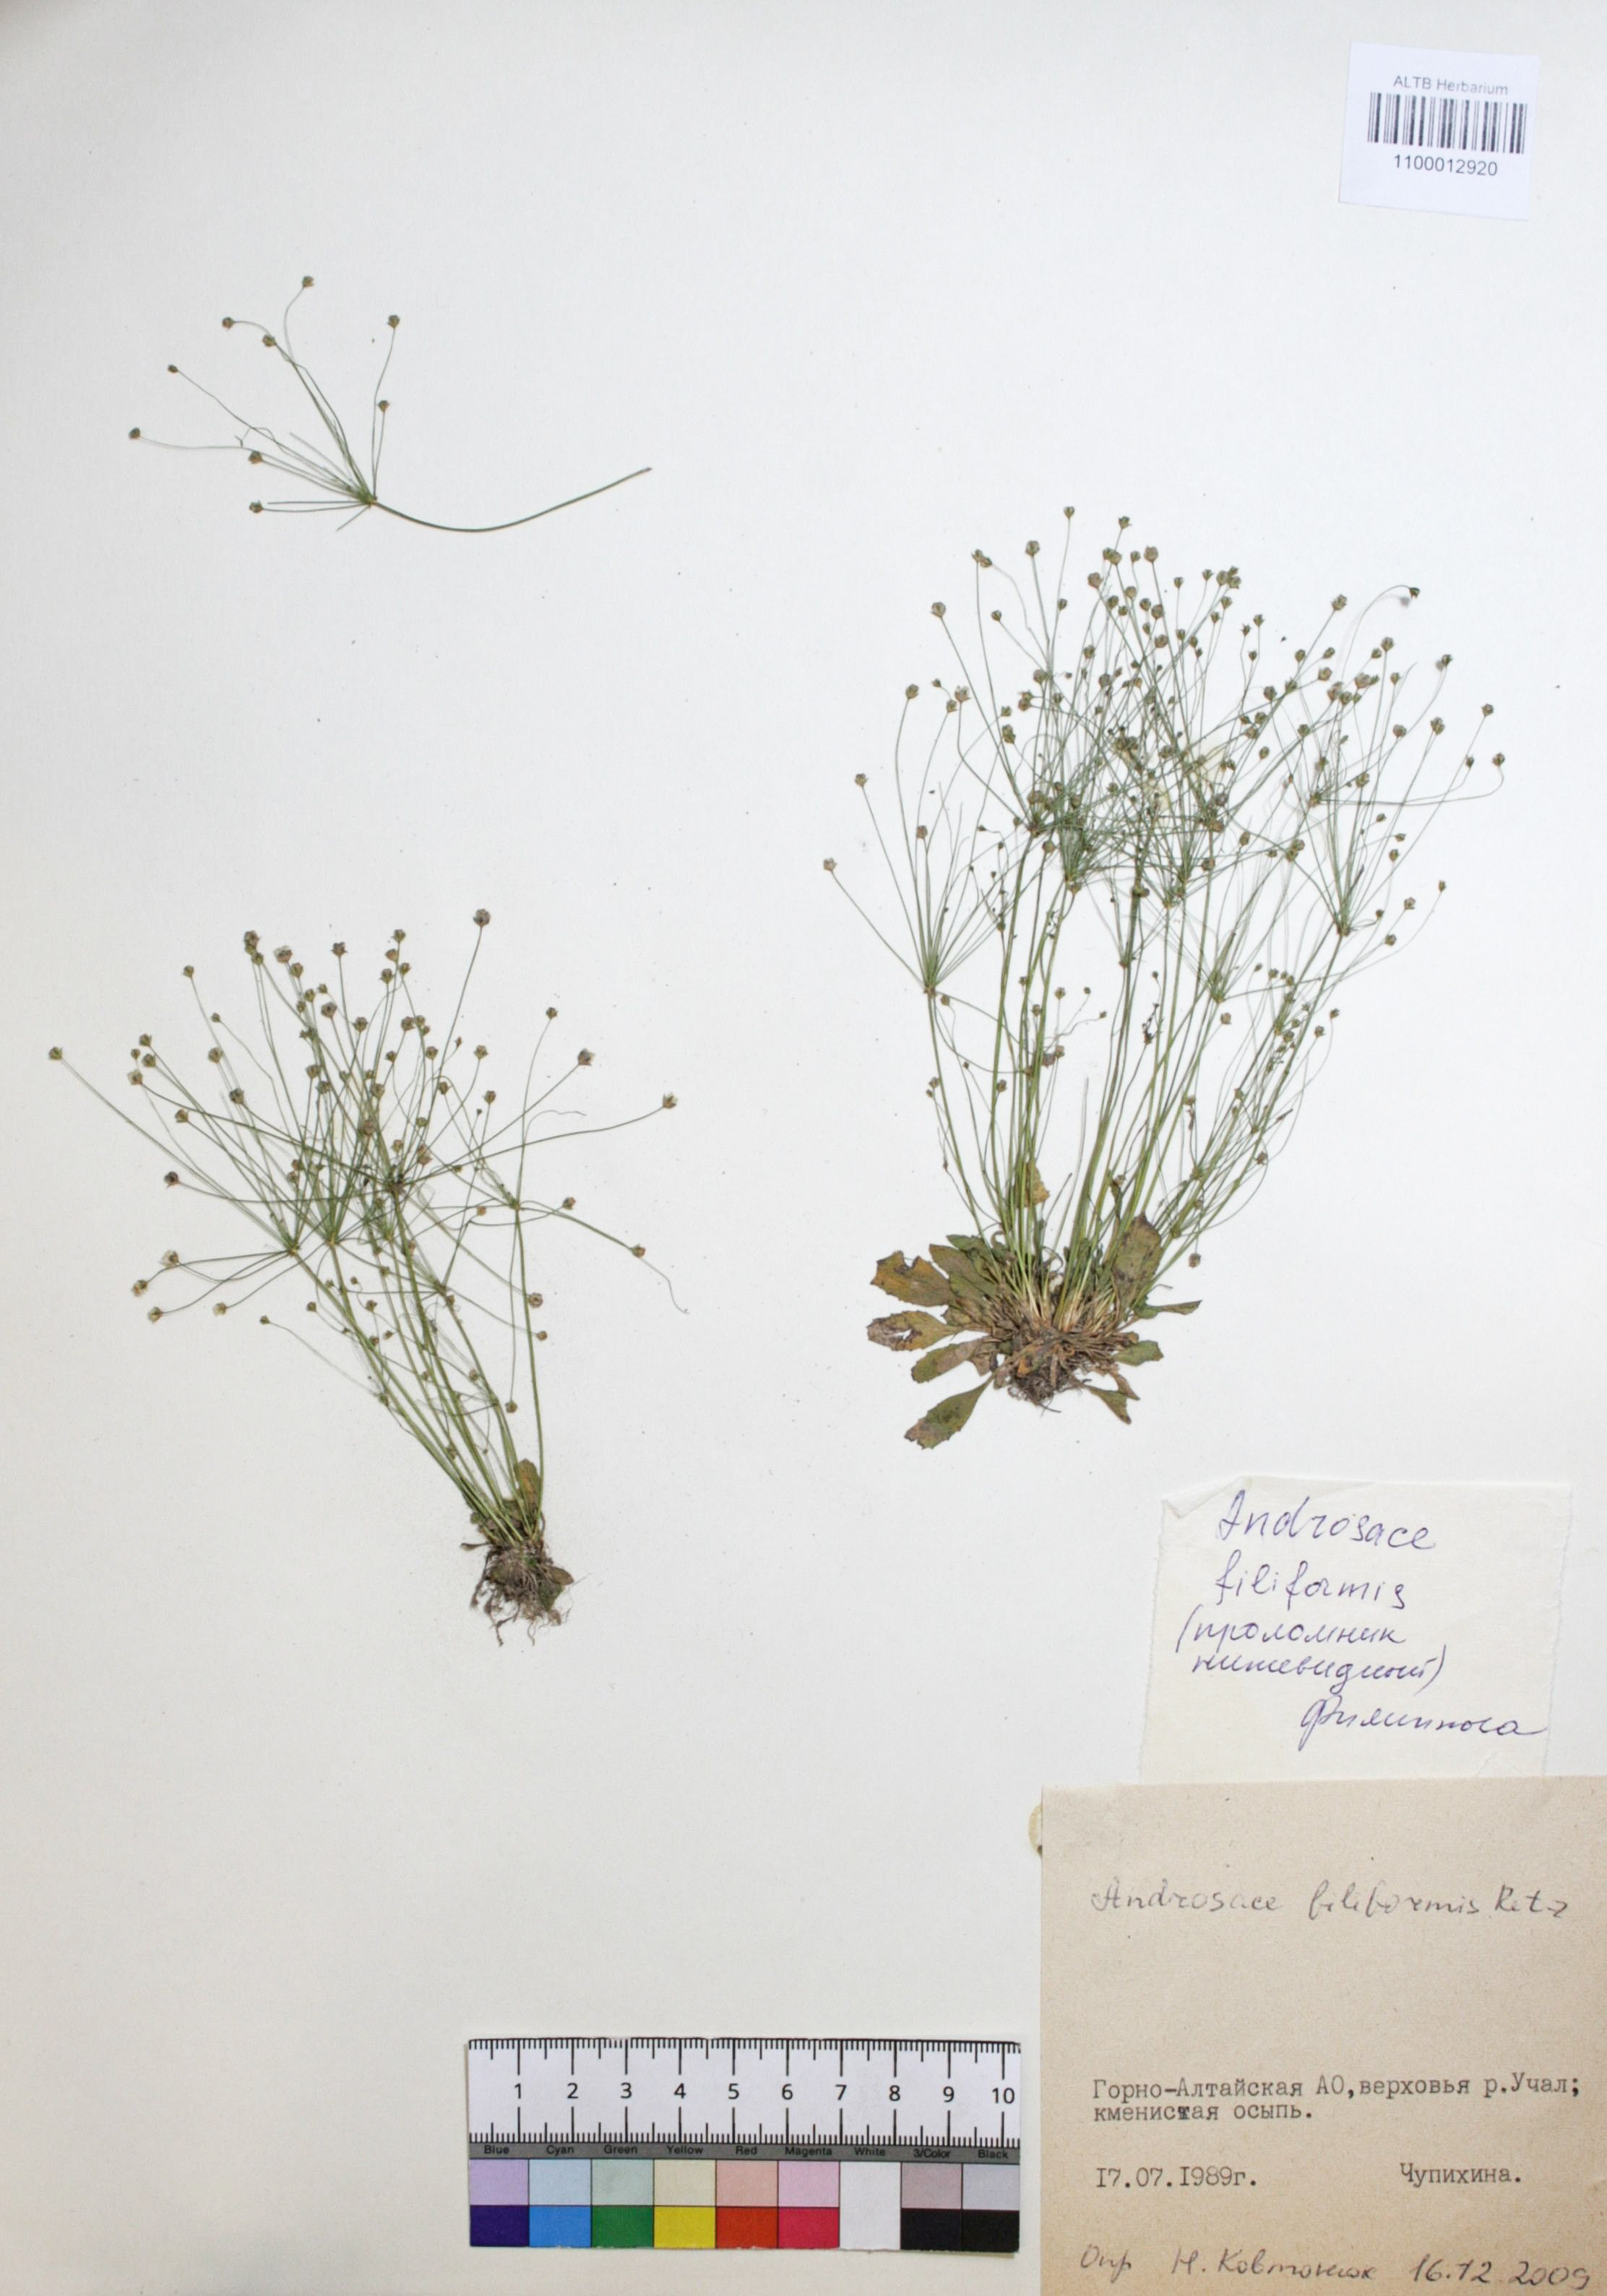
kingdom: Plantae
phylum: Tracheophyta
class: Magnoliopsida
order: Ericales
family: Primulaceae
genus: Androsace
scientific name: Androsace filiformis
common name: Filiform rock jasmine
